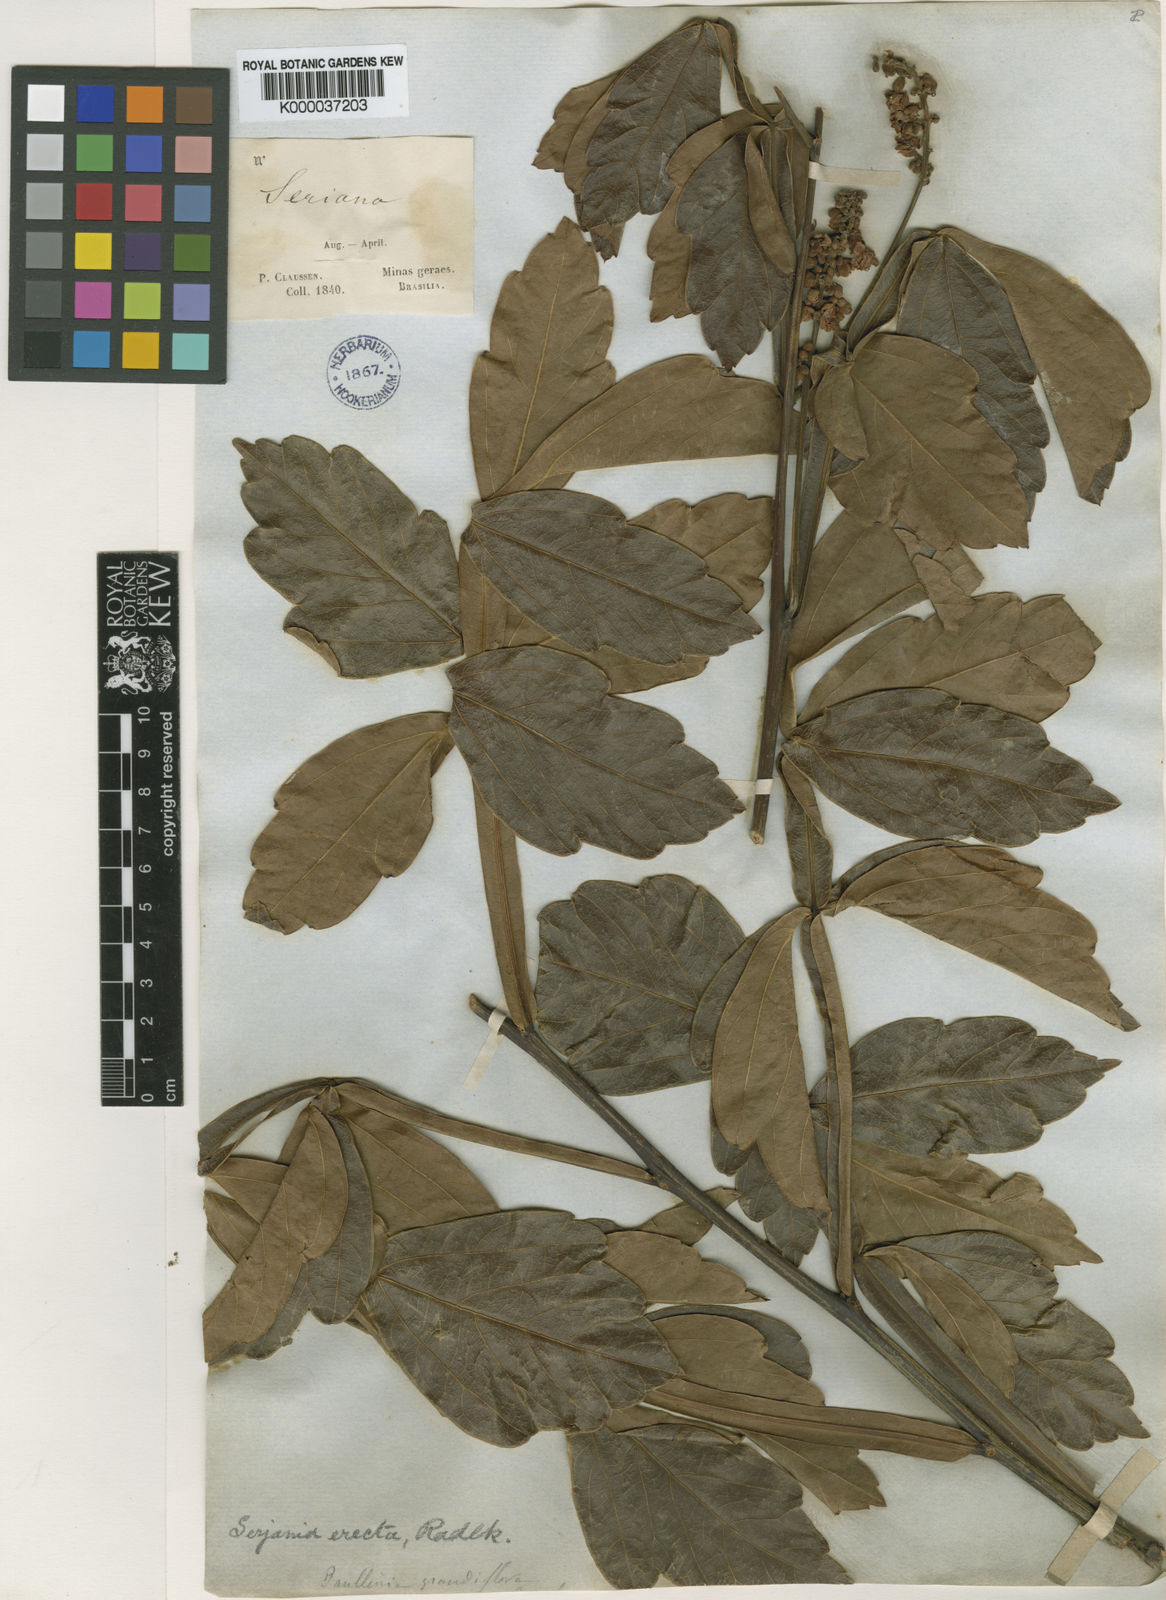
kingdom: Plantae
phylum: Tracheophyta
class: Magnoliopsida
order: Sapindales
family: Sapindaceae
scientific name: Sapindaceae
